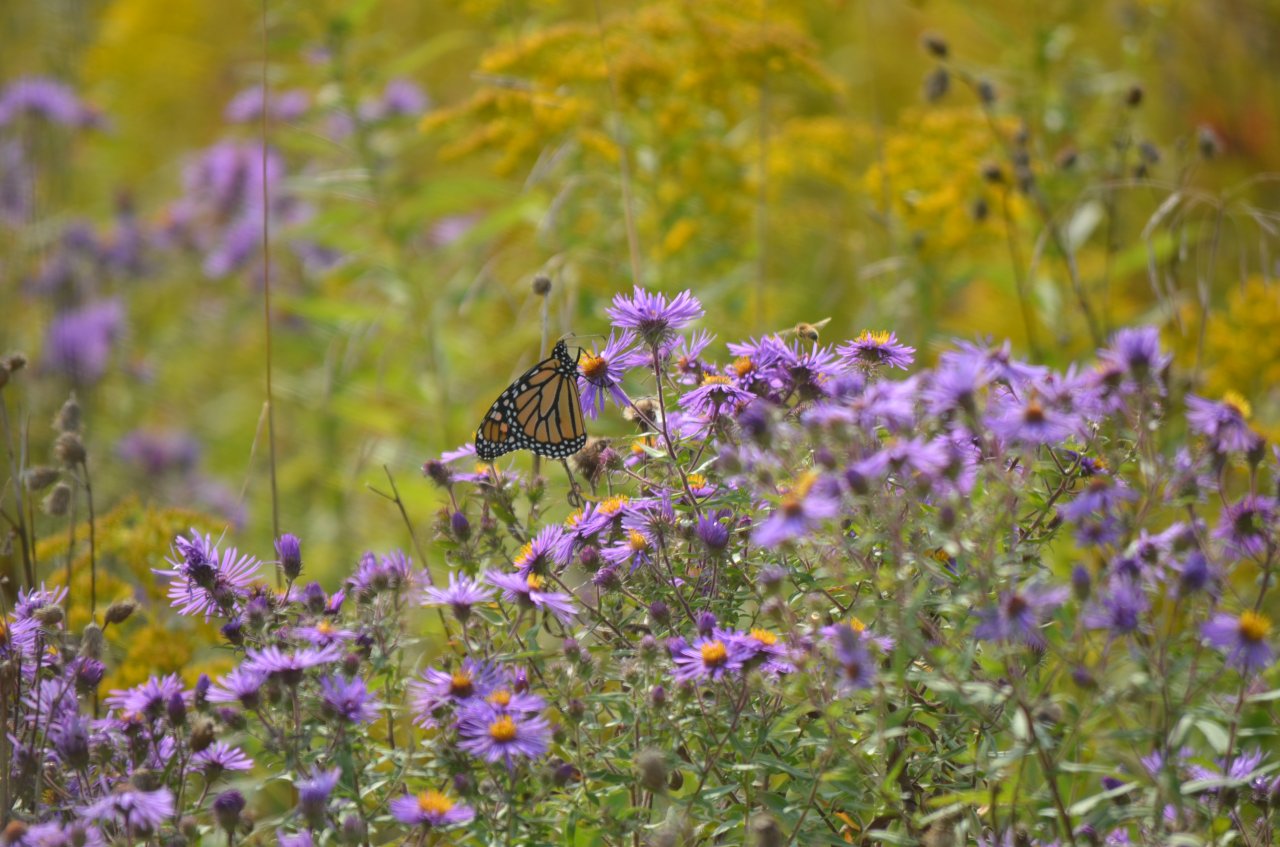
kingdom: Animalia
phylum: Arthropoda
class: Insecta
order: Lepidoptera
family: Nymphalidae
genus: Danaus
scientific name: Danaus plexippus
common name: Monarch
